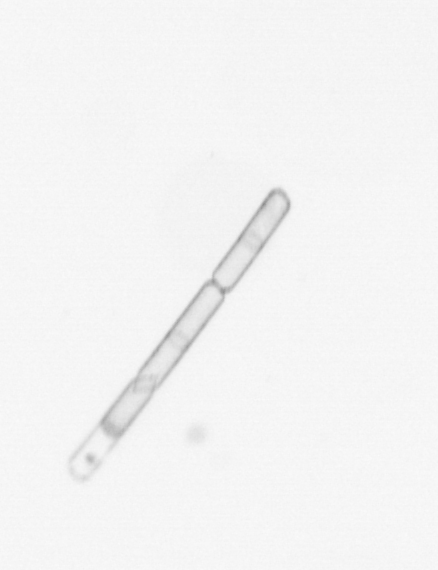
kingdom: Chromista
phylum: Ochrophyta
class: Bacillariophyceae
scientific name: Bacillariophyceae
